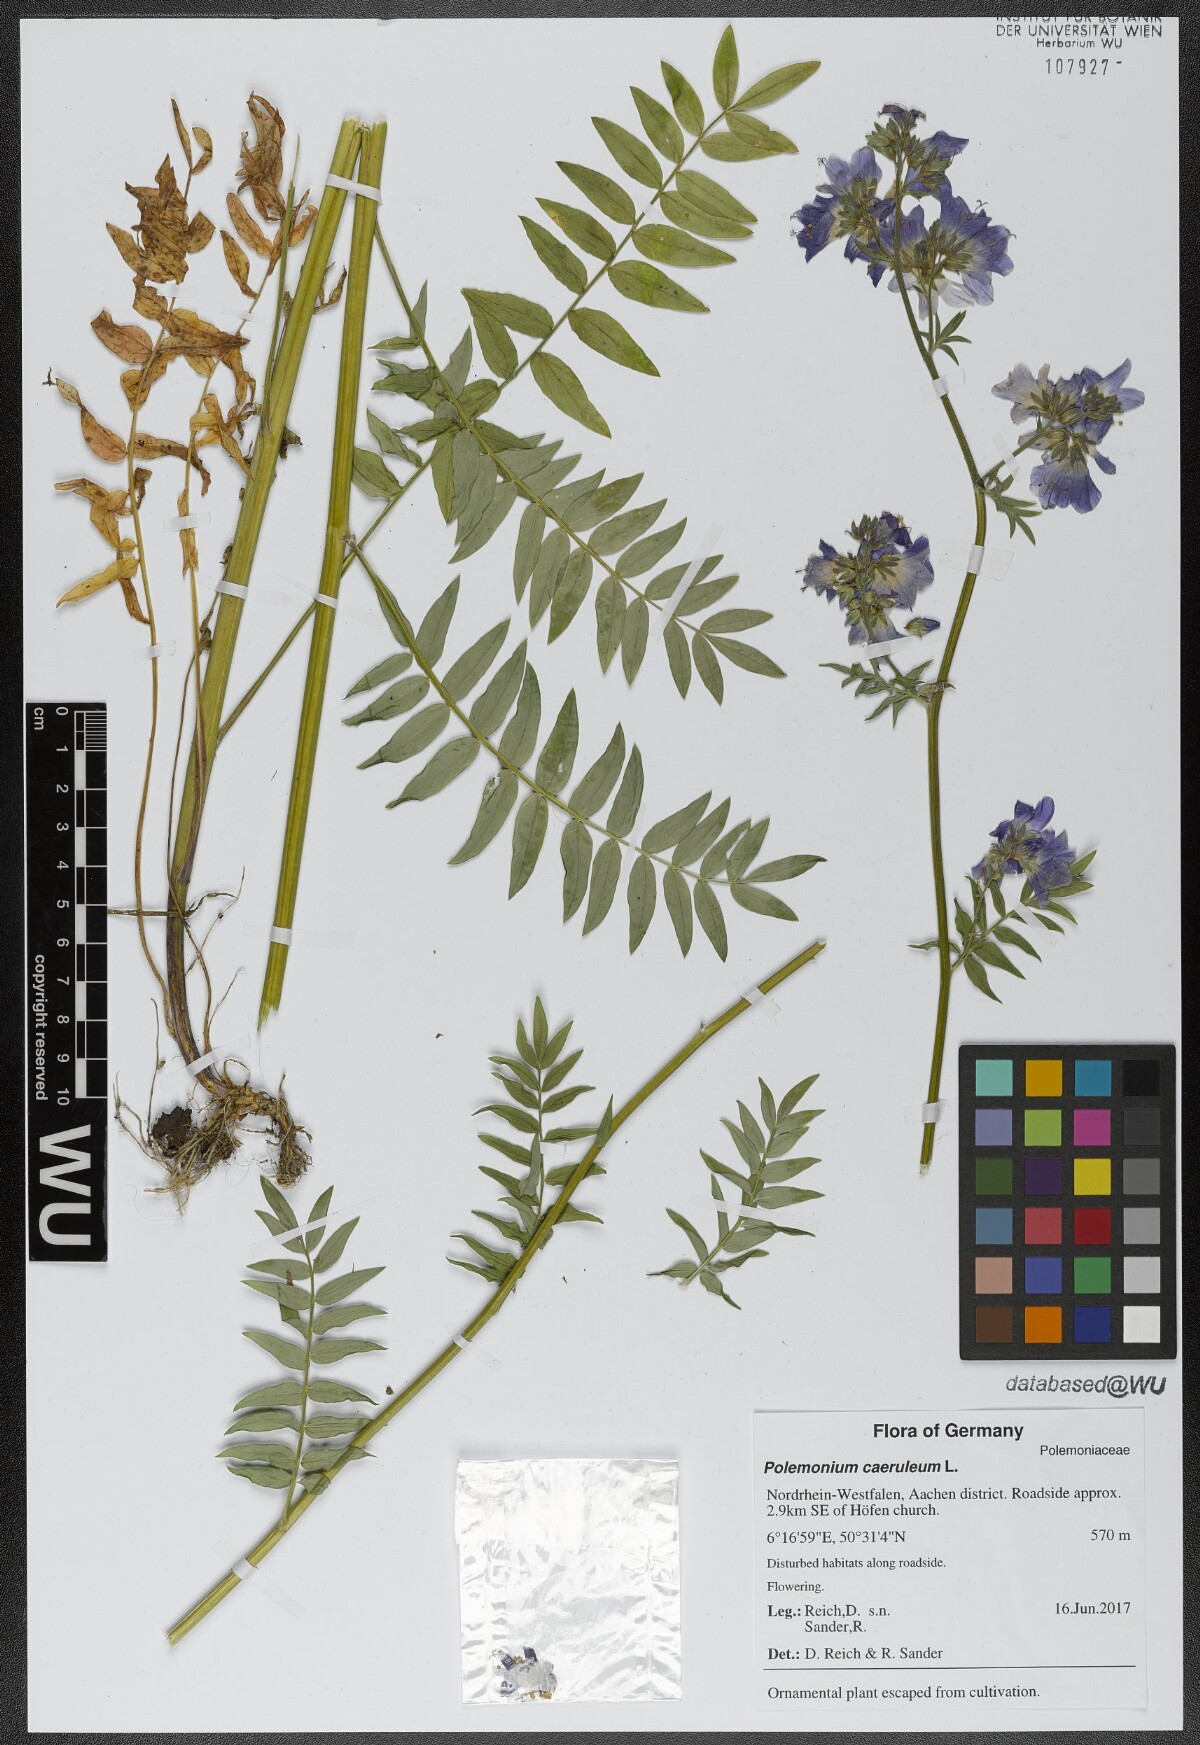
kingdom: Plantae
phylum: Tracheophyta
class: Magnoliopsida
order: Ericales
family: Polemoniaceae
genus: Polemonium
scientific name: Polemonium caeruleum
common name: Jacob's-ladder
